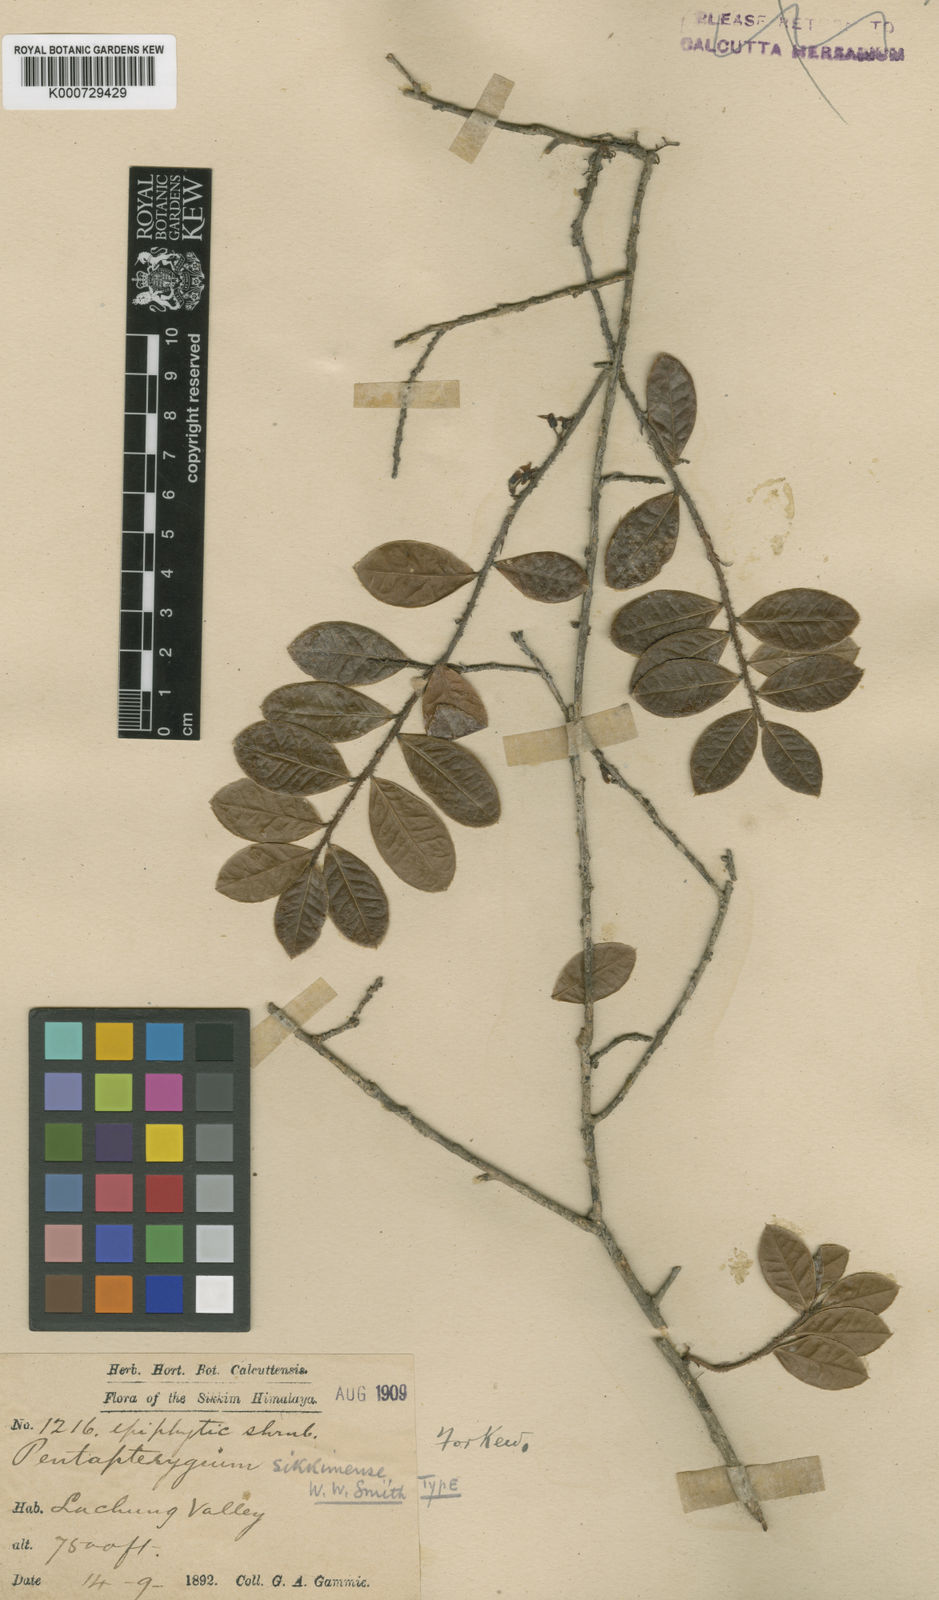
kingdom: Plantae
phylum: Tracheophyta
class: Magnoliopsida
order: Ericales
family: Ericaceae
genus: Agapetes
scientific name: Agapetes smithiana
